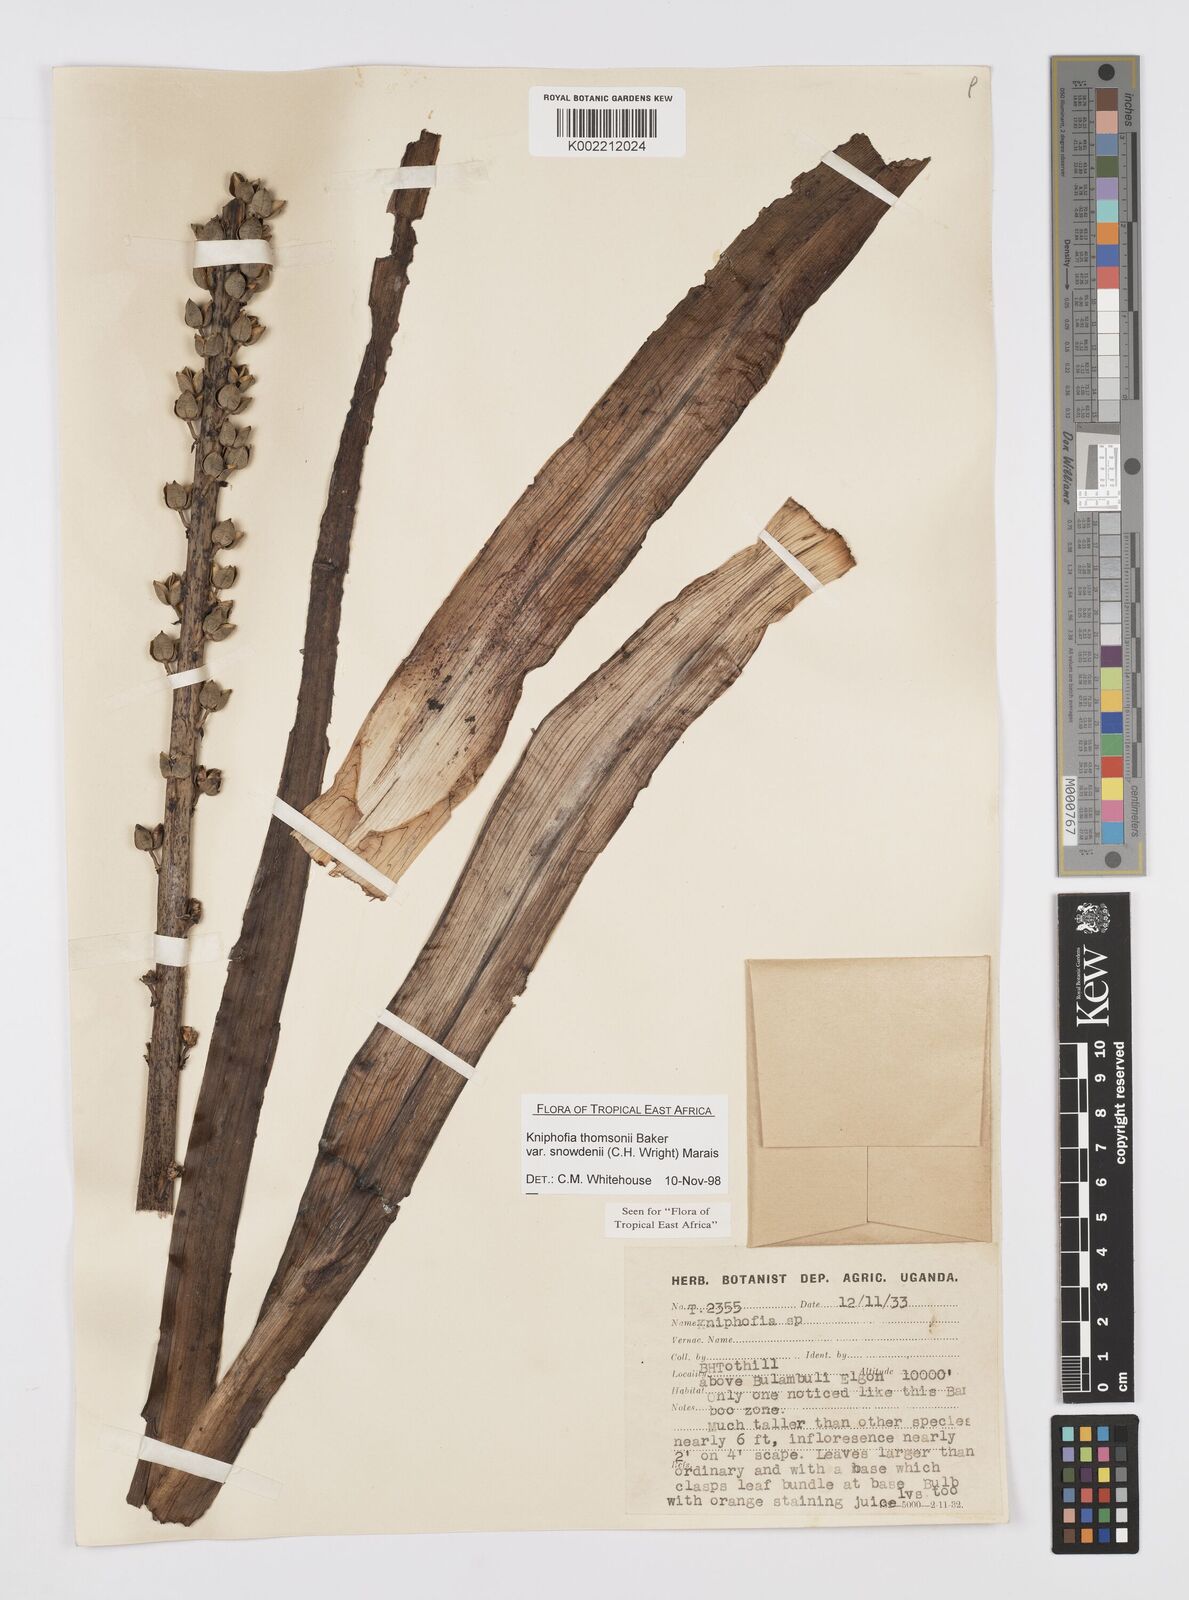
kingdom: Plantae
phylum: Tracheophyta
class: Liliopsida
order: Asparagales
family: Asphodelaceae
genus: Kniphofia
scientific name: Kniphofia thomsonii
